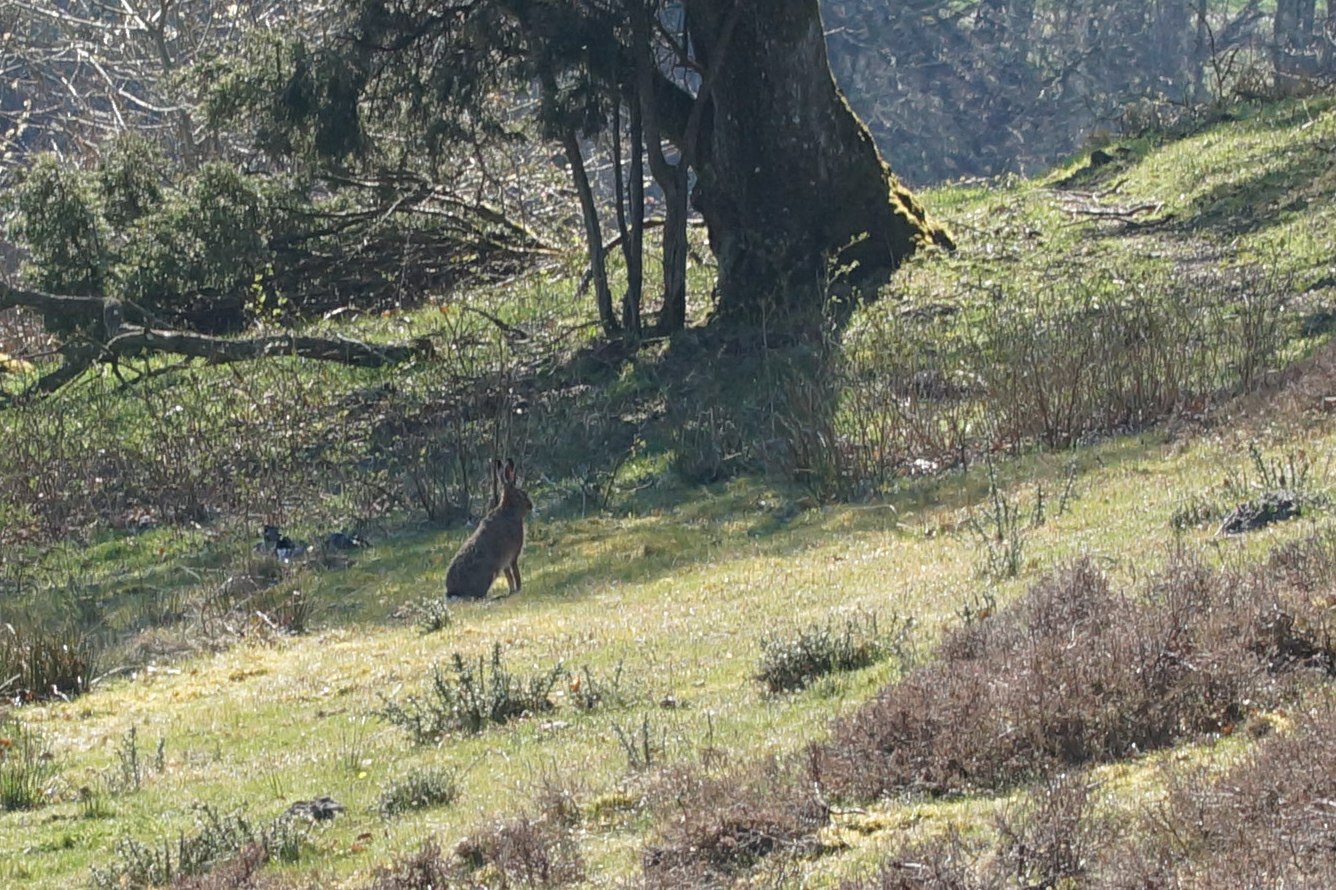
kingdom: Animalia
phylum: Chordata
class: Mammalia
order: Lagomorpha
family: Leporidae
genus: Lepus
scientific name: Lepus europaeus
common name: Hare
